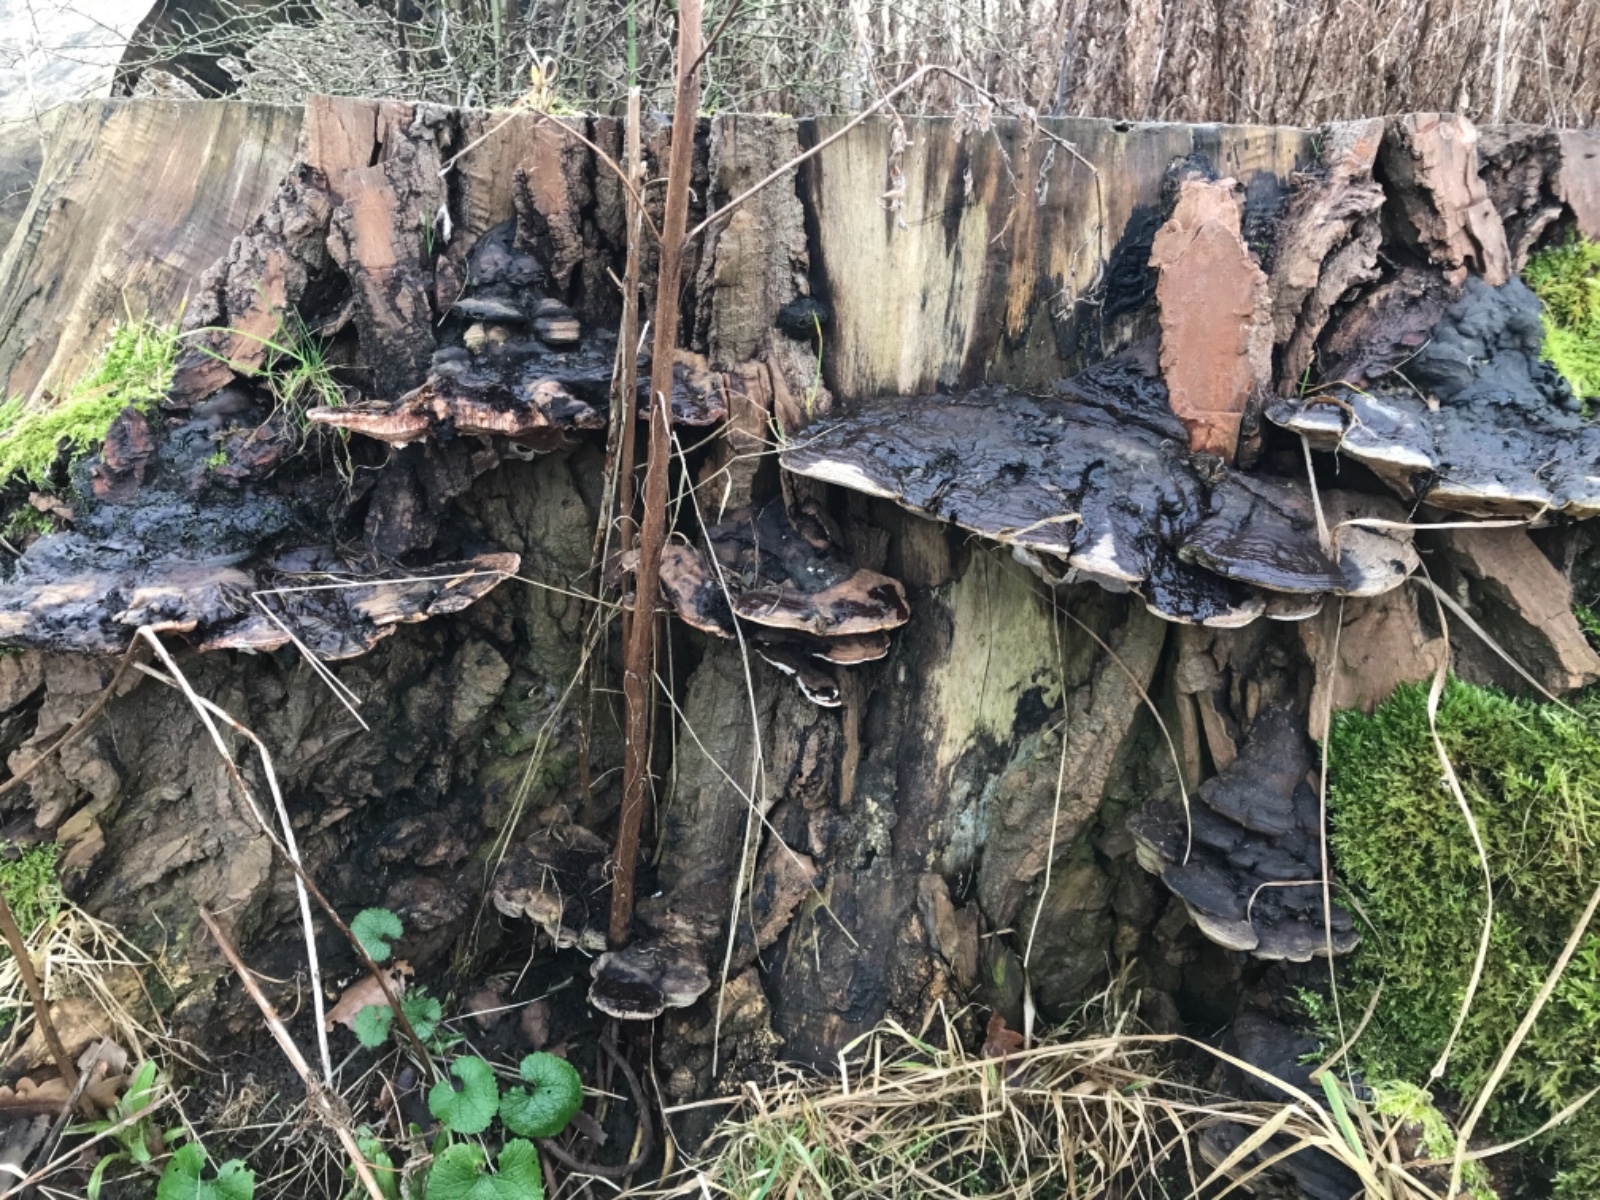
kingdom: Fungi
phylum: Basidiomycota
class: Agaricomycetes
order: Polyporales
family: Polyporaceae
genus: Ganoderma
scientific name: Ganoderma applanatum
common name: flad lakporesvamp
